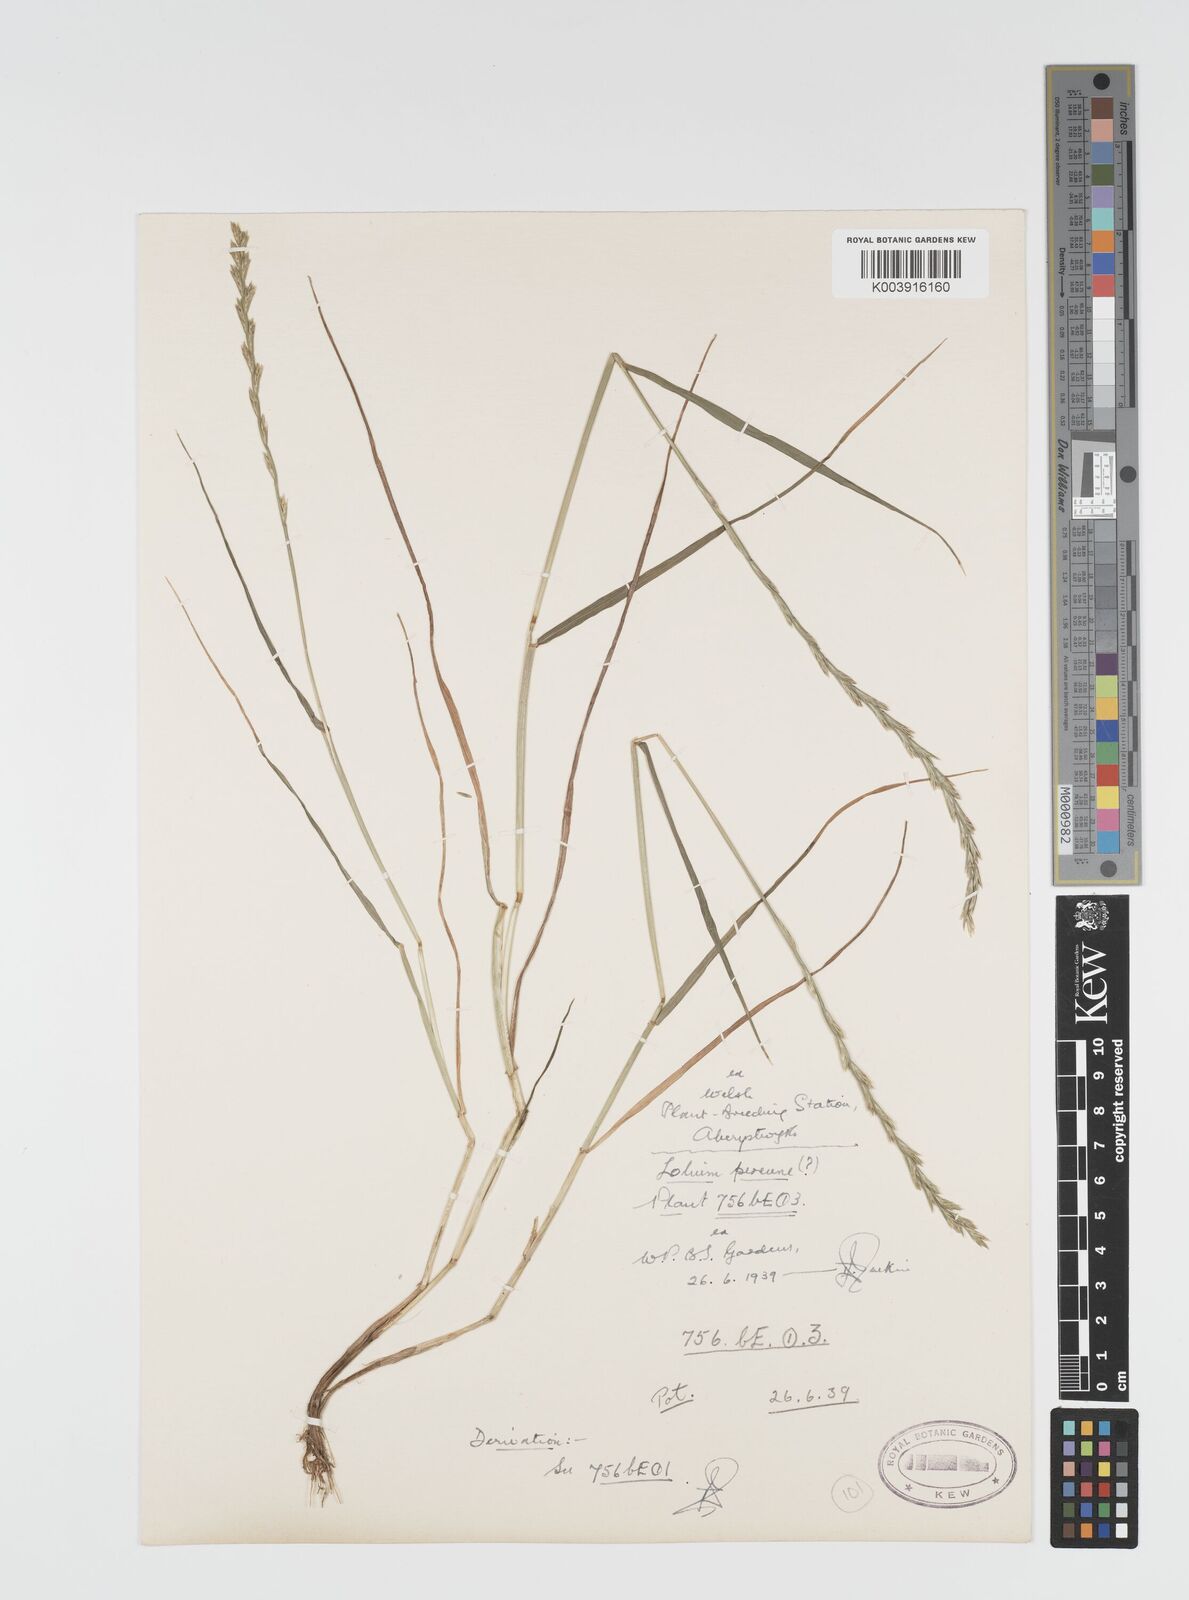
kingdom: Plantae
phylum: Tracheophyta
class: Liliopsida
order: Poales
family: Poaceae
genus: Lolium
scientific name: Lolium rigidum
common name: Wimmera ryegrass
